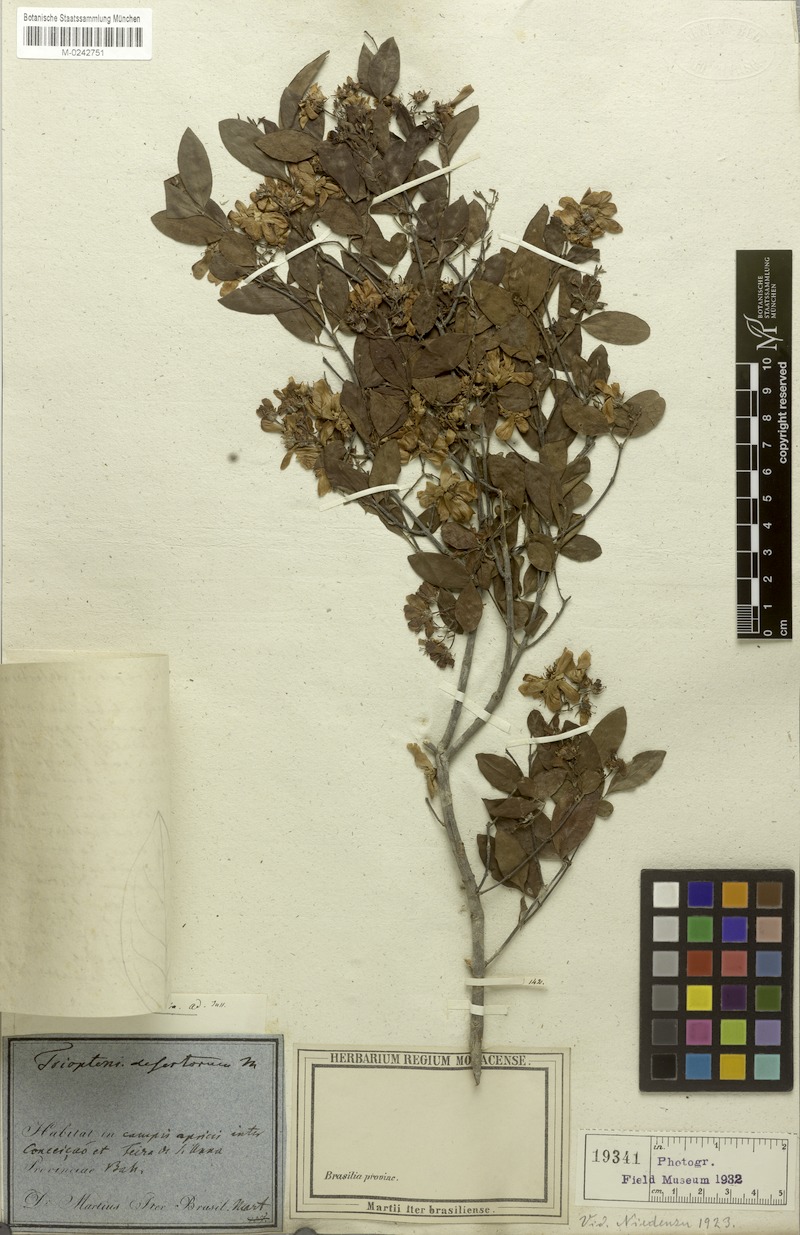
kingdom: Plantae
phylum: Tracheophyta
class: Magnoliopsida
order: Malpighiales
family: Malpighiaceae
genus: Glicophyllum
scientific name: Glicophyllum longibracteatum
